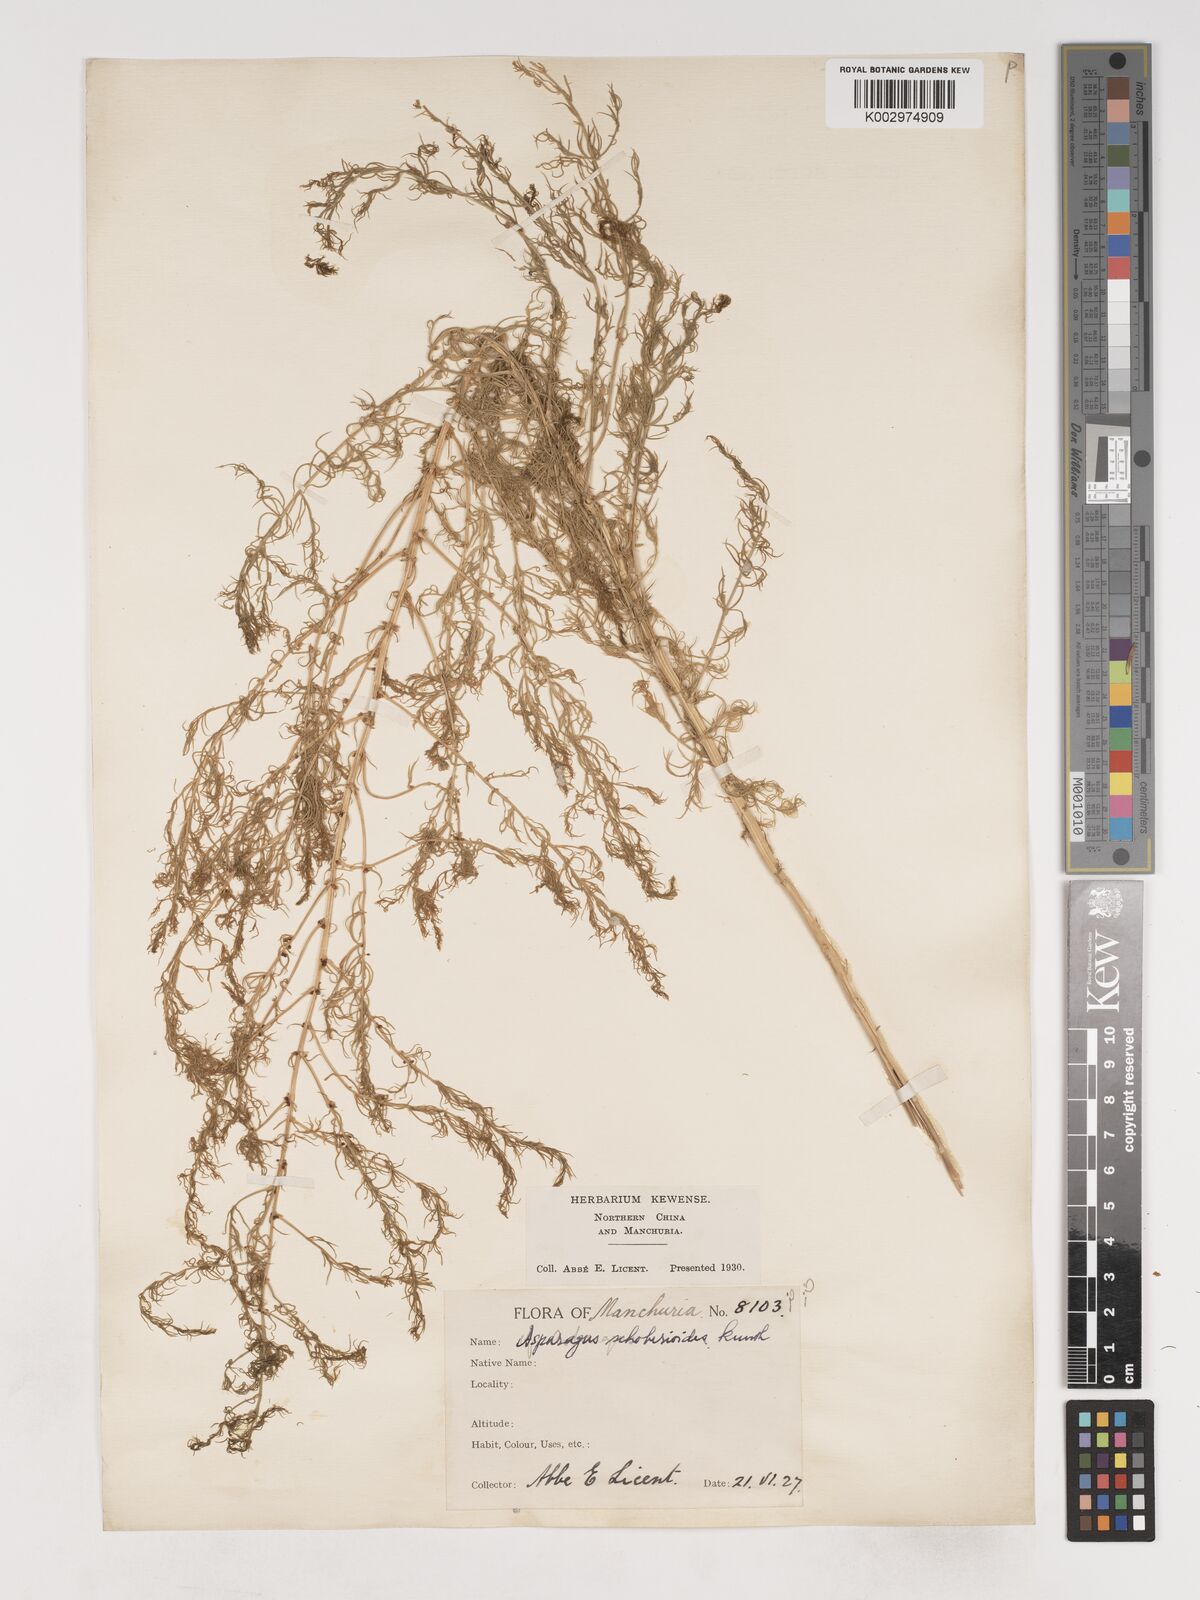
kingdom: Plantae
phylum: Tracheophyta
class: Liliopsida
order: Asparagales
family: Asparagaceae
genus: Asparagus
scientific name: Asparagus schoberioides
